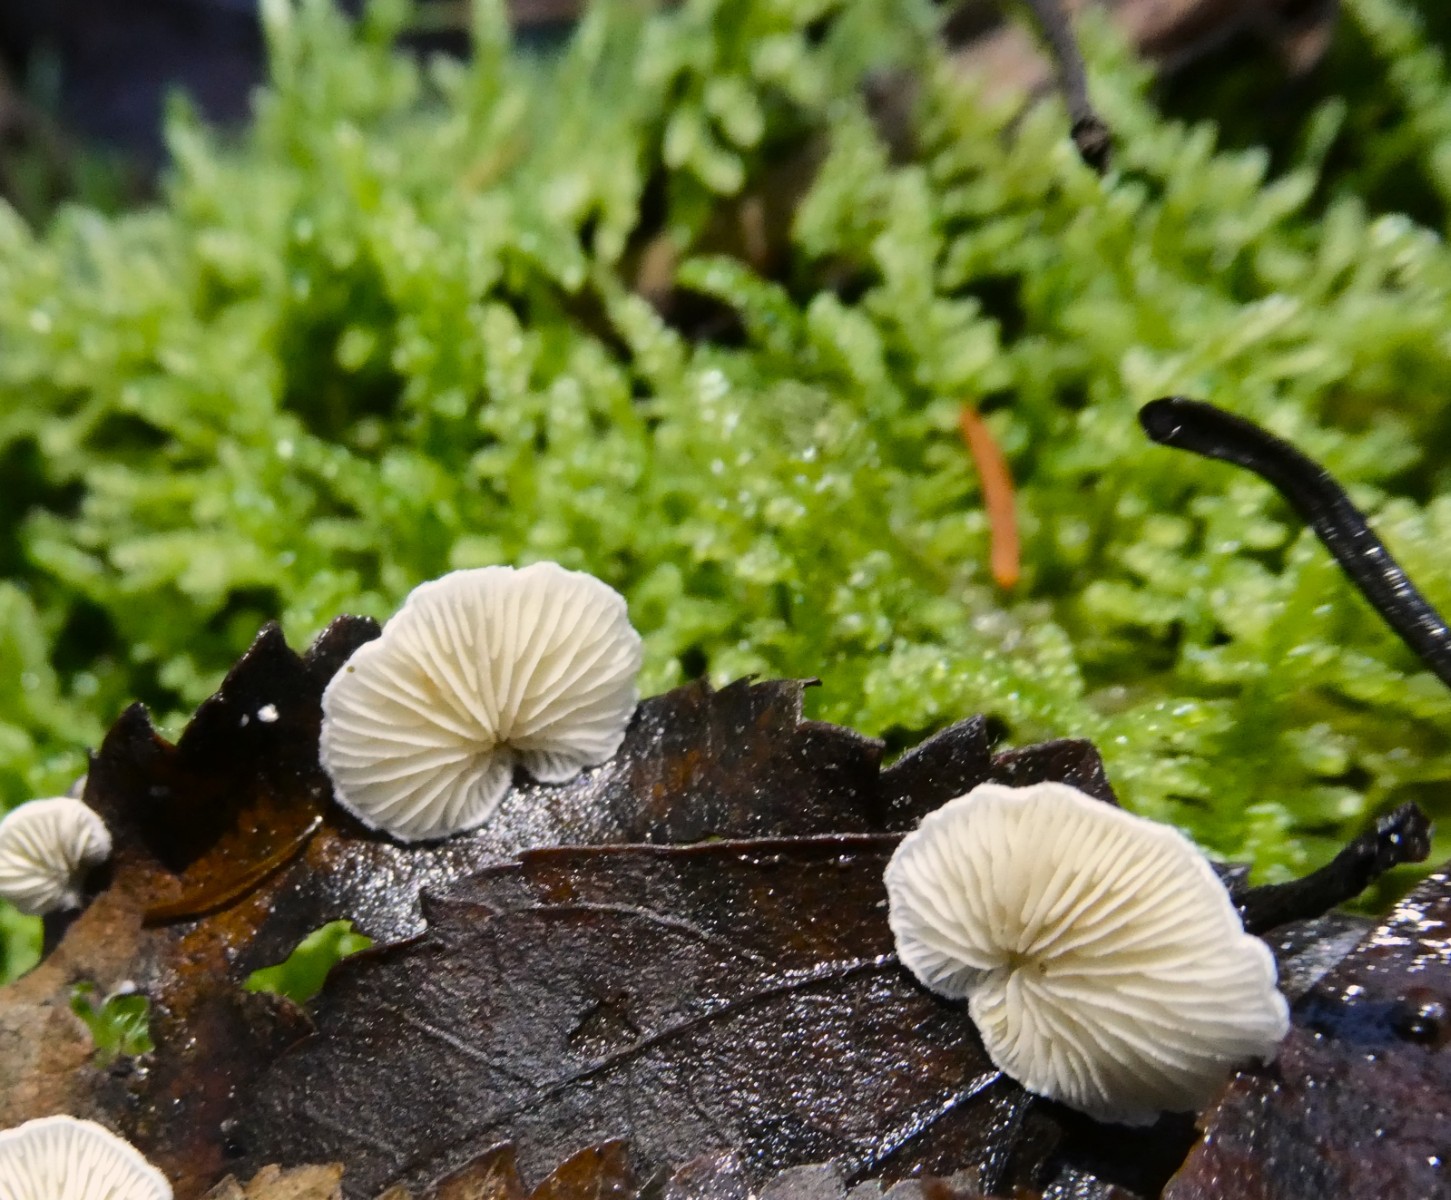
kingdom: Fungi
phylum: Basidiomycota
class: Agaricomycetes
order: Agaricales
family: Crepidotaceae
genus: Crepidotus
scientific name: Crepidotus epibryus
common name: førne-muslingesvamp
